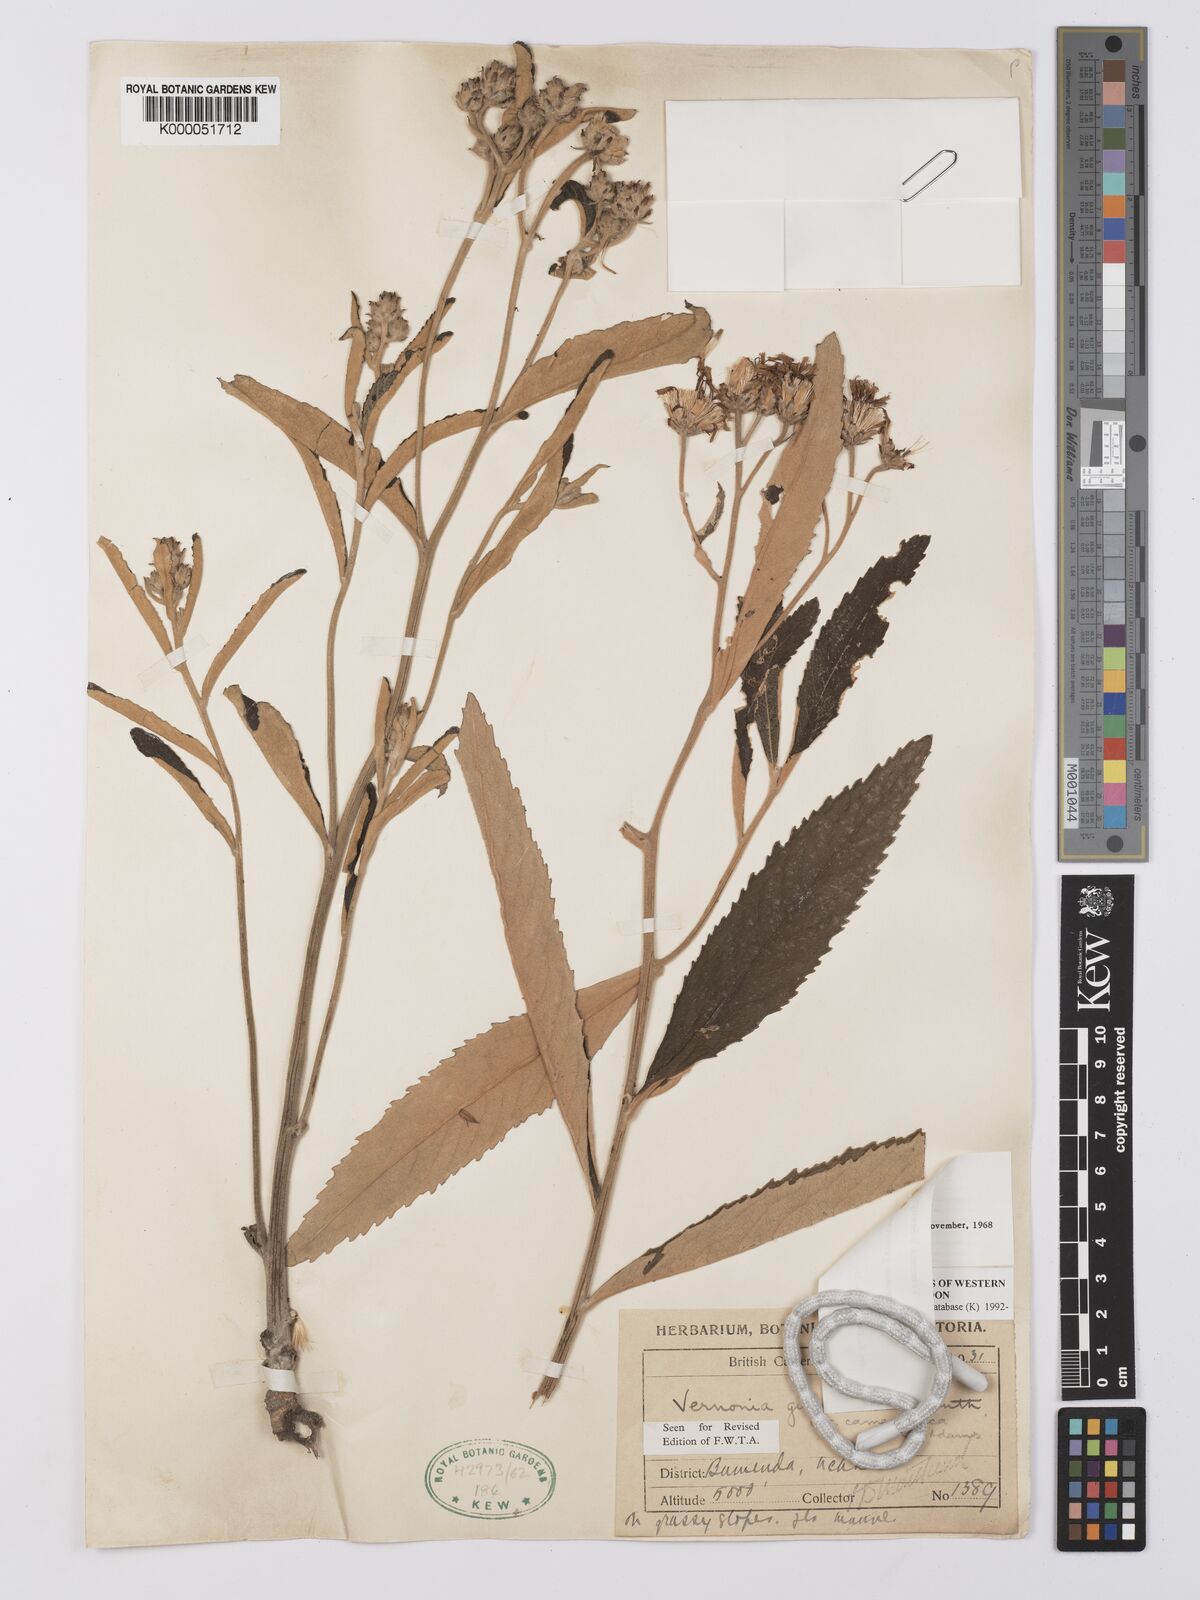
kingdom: Plantae
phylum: Tracheophyta
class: Magnoliopsida
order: Asterales
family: Asteraceae
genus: Baccharoides
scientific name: Baccharoides guineensis
